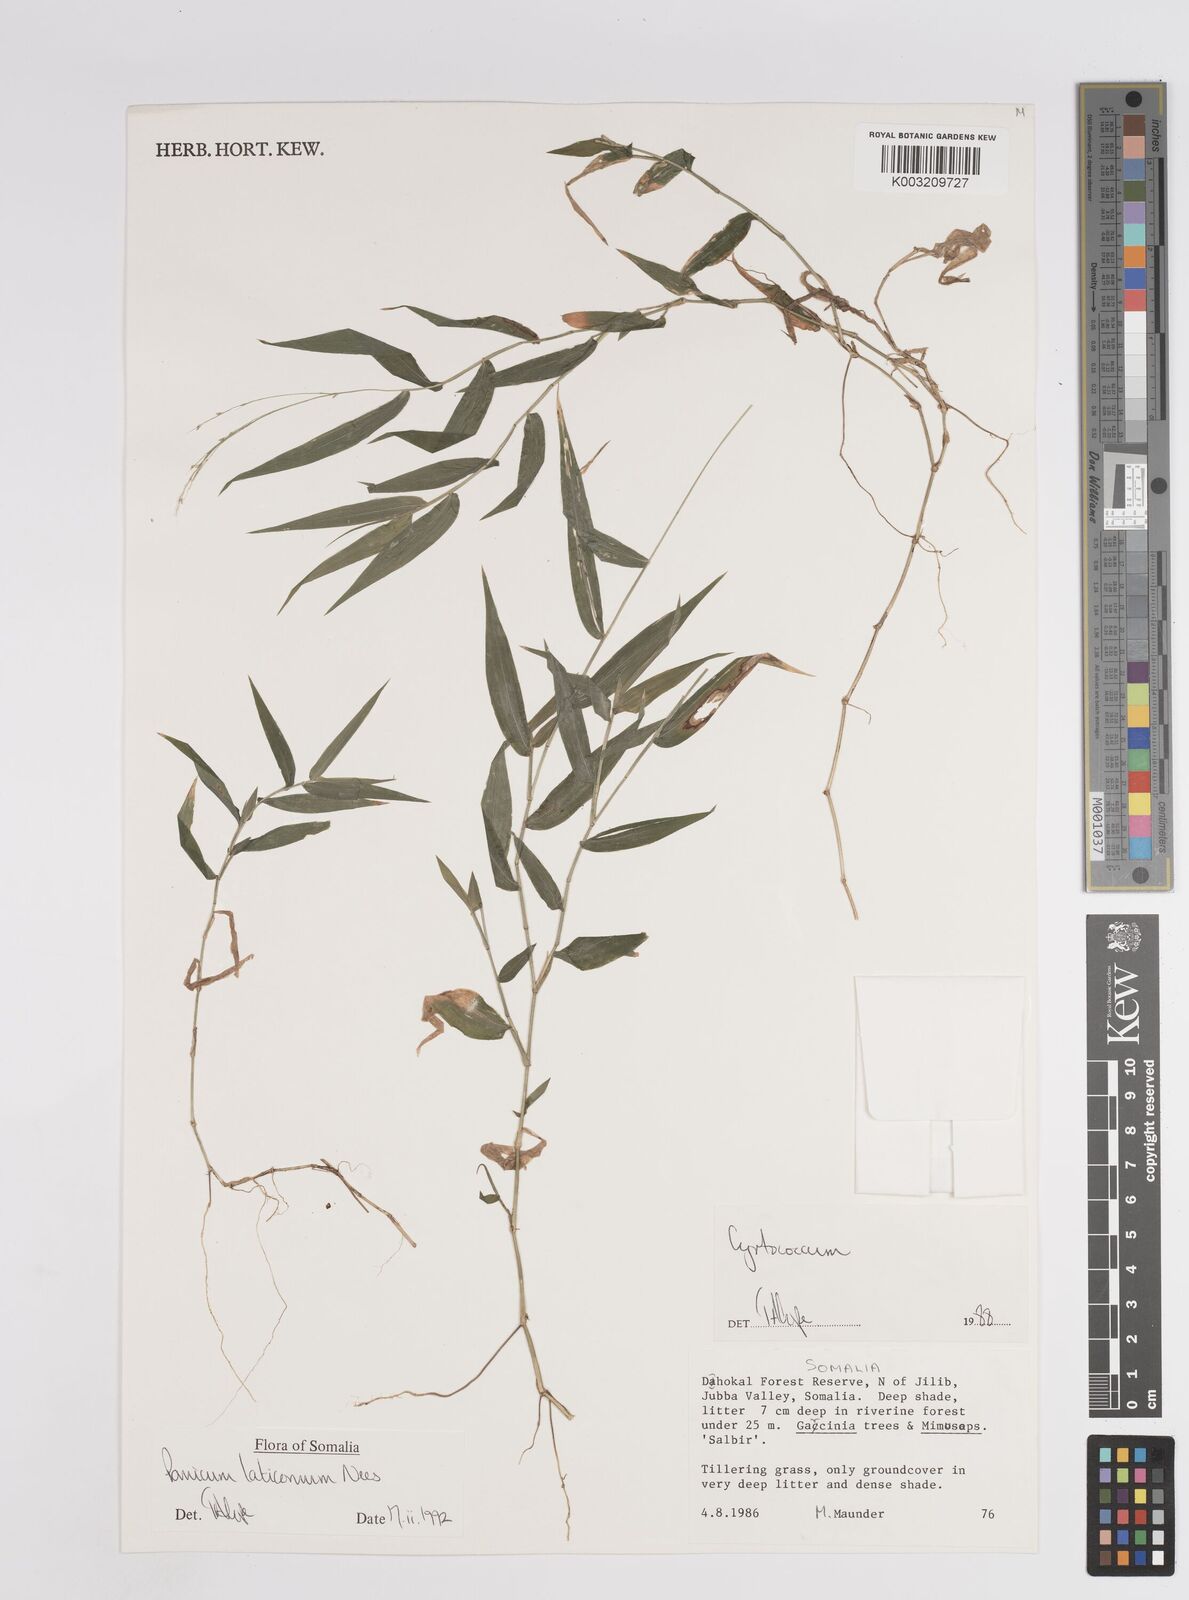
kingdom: Plantae
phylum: Tracheophyta
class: Liliopsida
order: Poales
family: Poaceae
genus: Panicum
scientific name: Panicum laticomum
